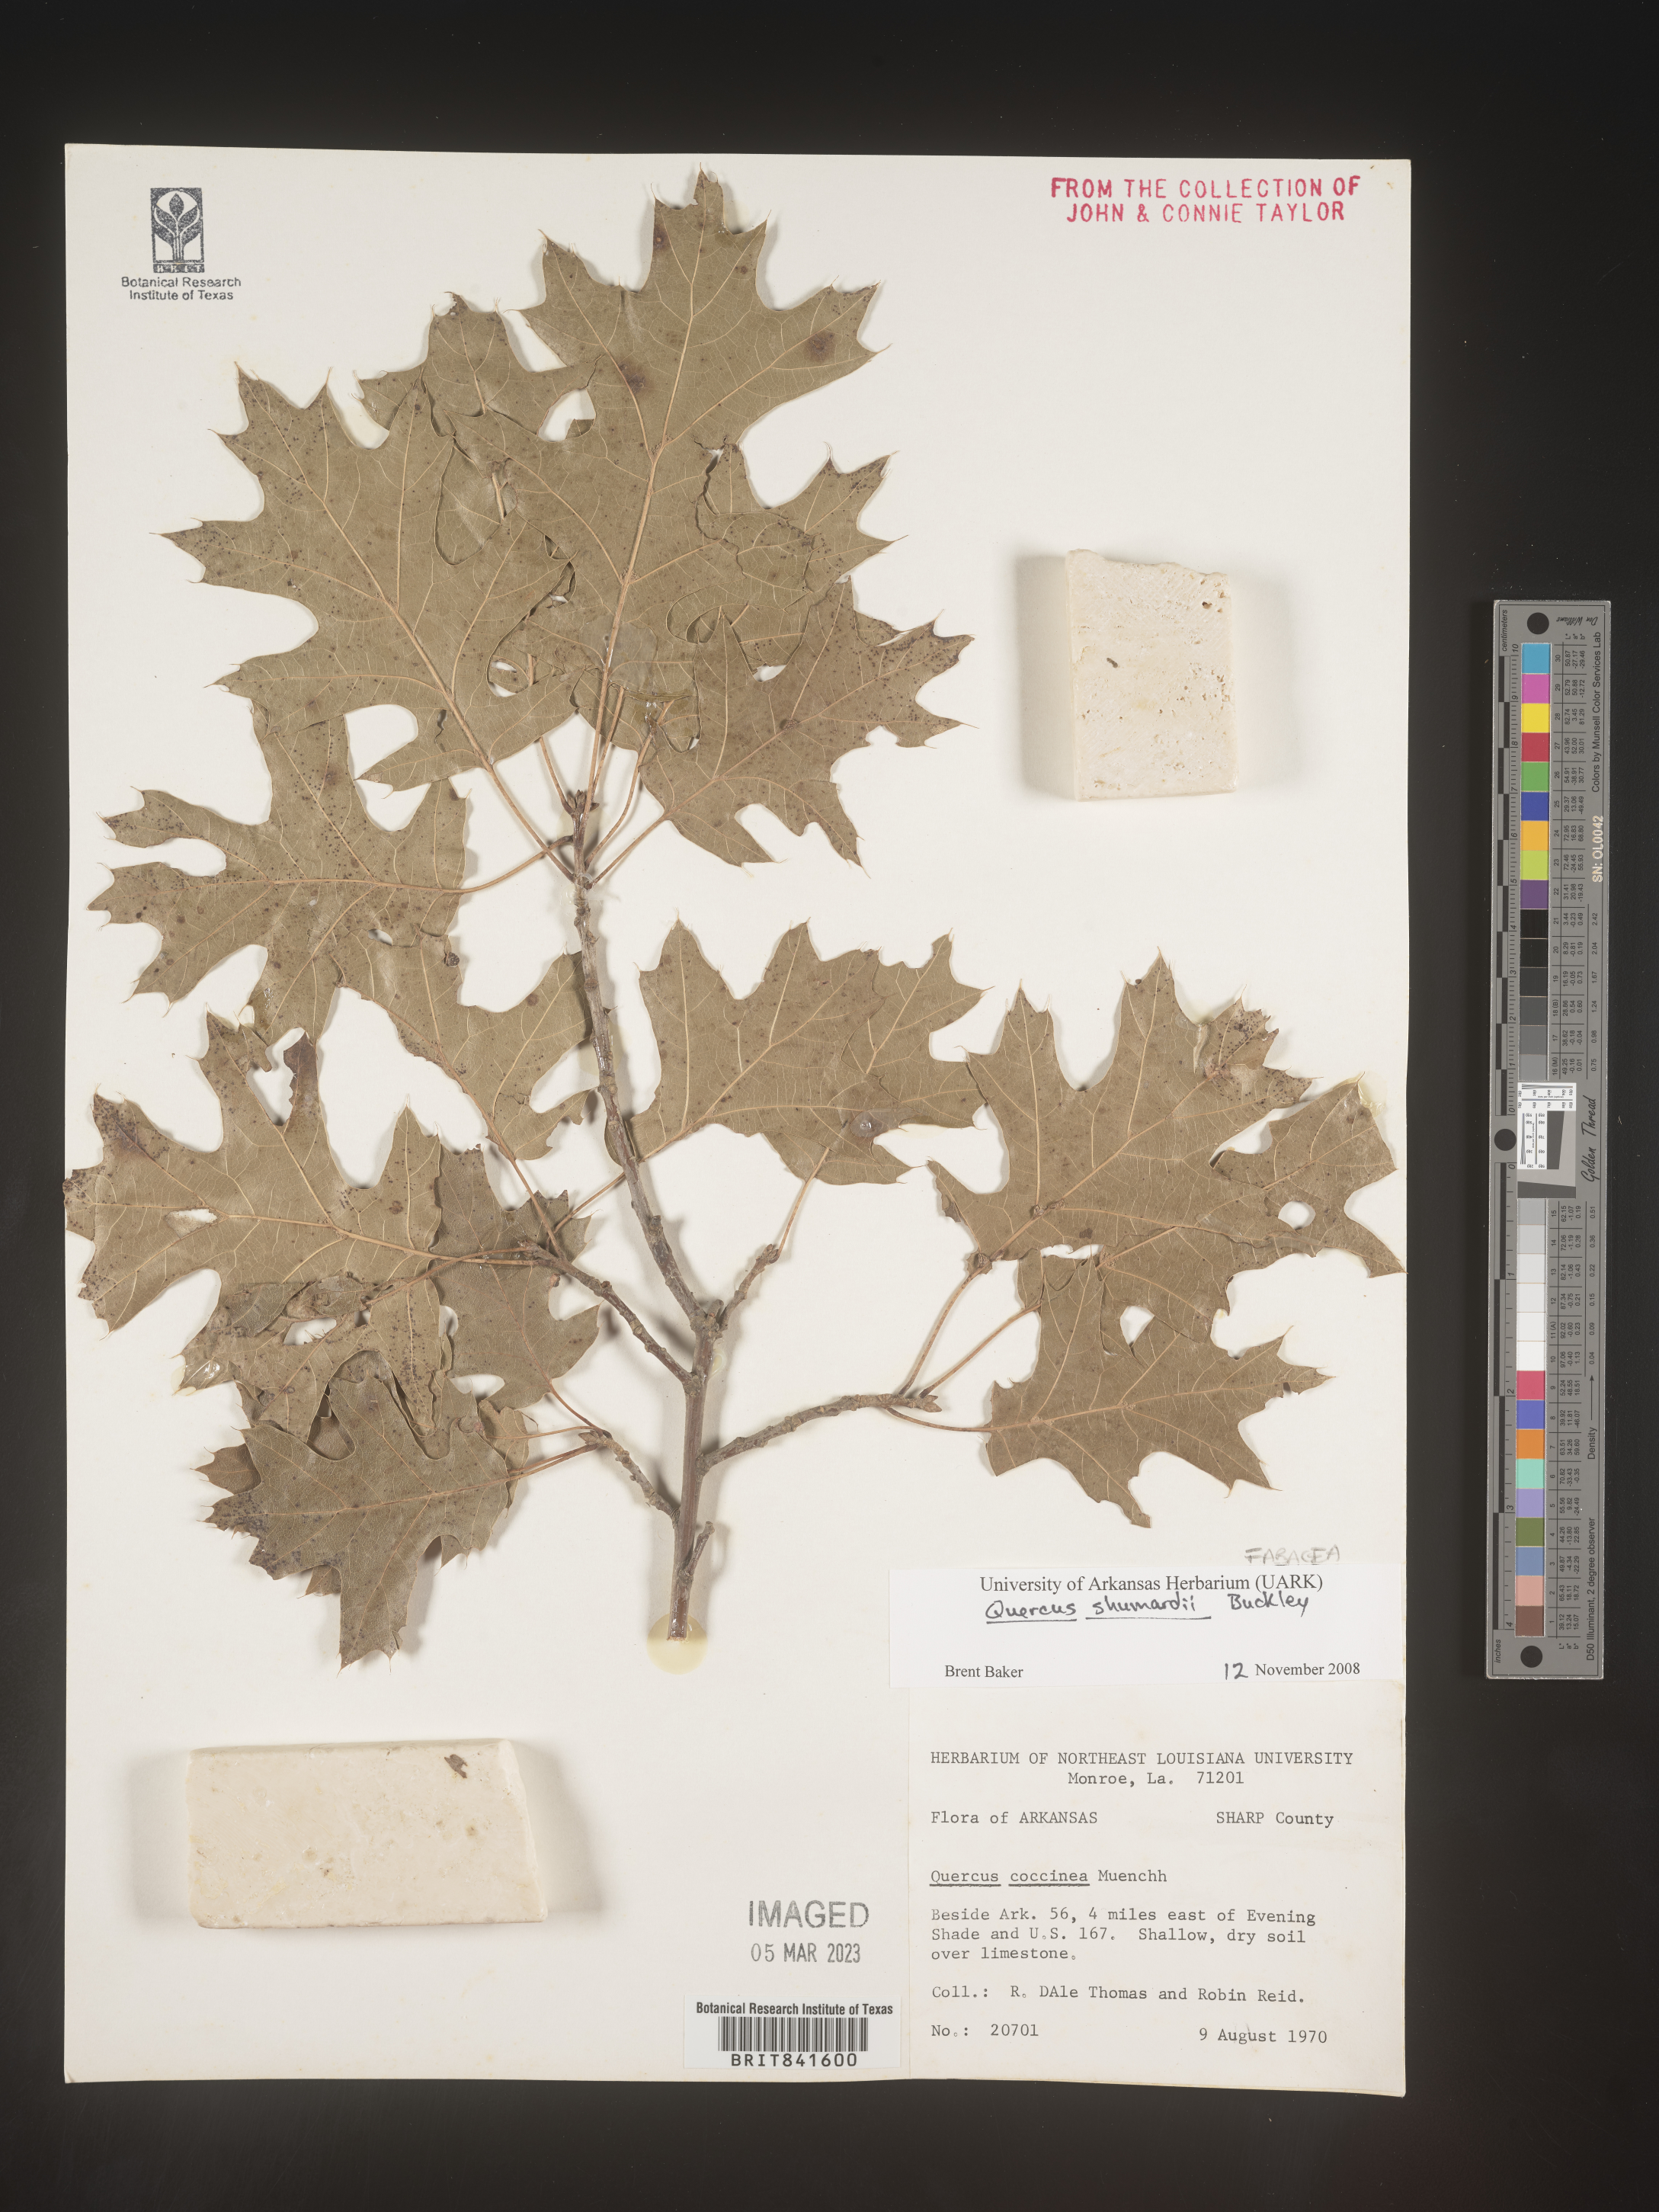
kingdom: Plantae
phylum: Tracheophyta
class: Magnoliopsida
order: Fagales
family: Fagaceae
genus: Quercus
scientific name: Quercus shumardii
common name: Shumard oak
